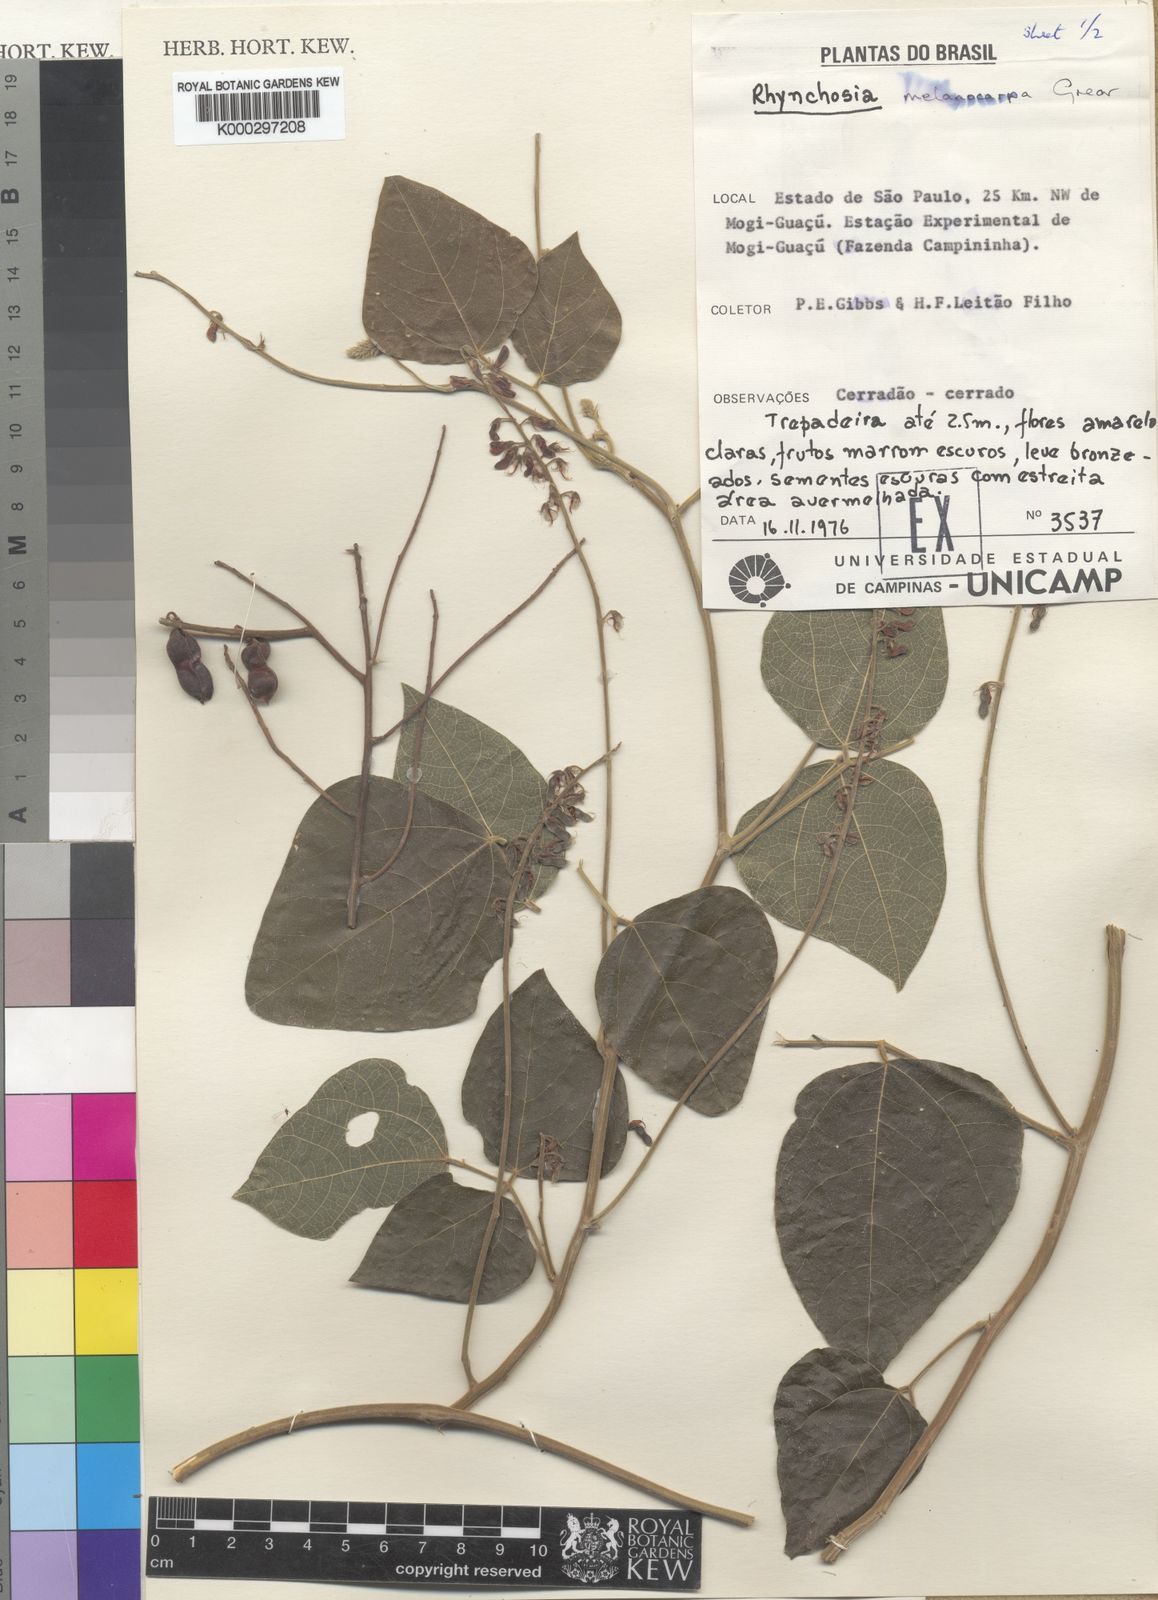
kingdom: Plantae
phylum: Tracheophyta
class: Magnoliopsida
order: Fabales
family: Fabaceae
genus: Rhynchosia
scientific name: Rhynchosia melanocarpa
